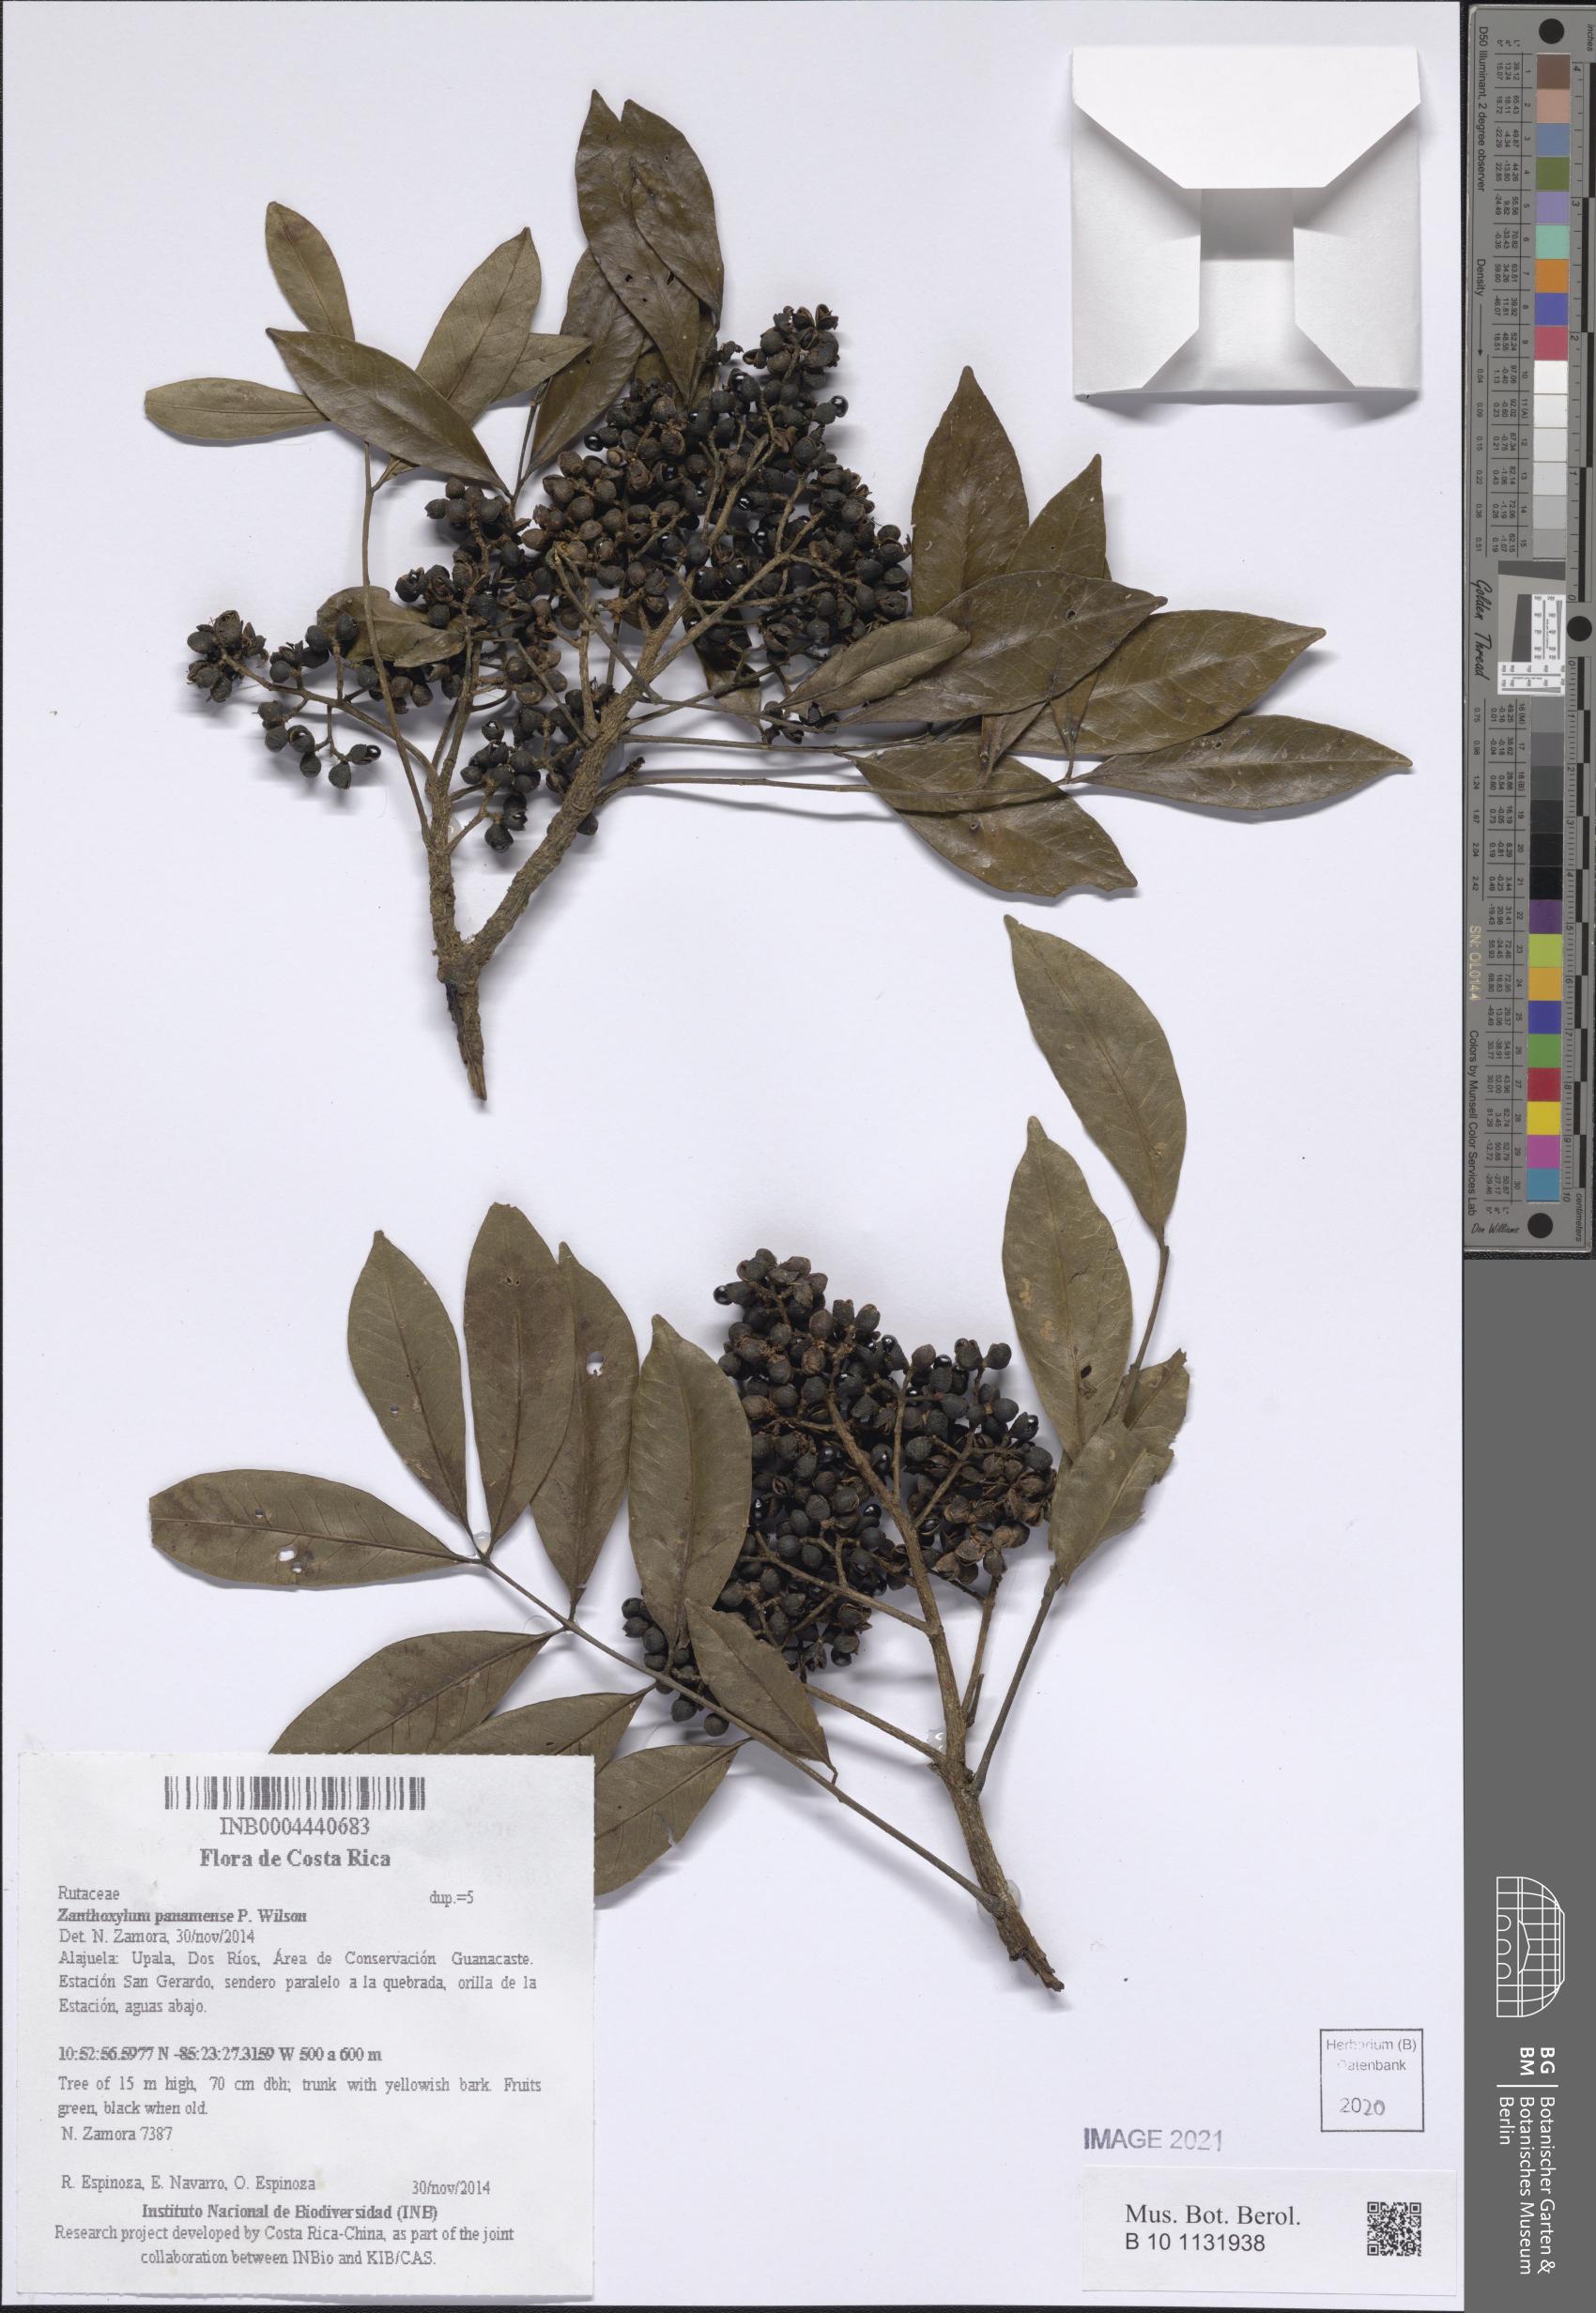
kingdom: Plantae
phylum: Tracheophyta
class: Magnoliopsida
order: Sapindales
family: Rutaceae
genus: Zanthoxylum
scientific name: Zanthoxylum panamense
